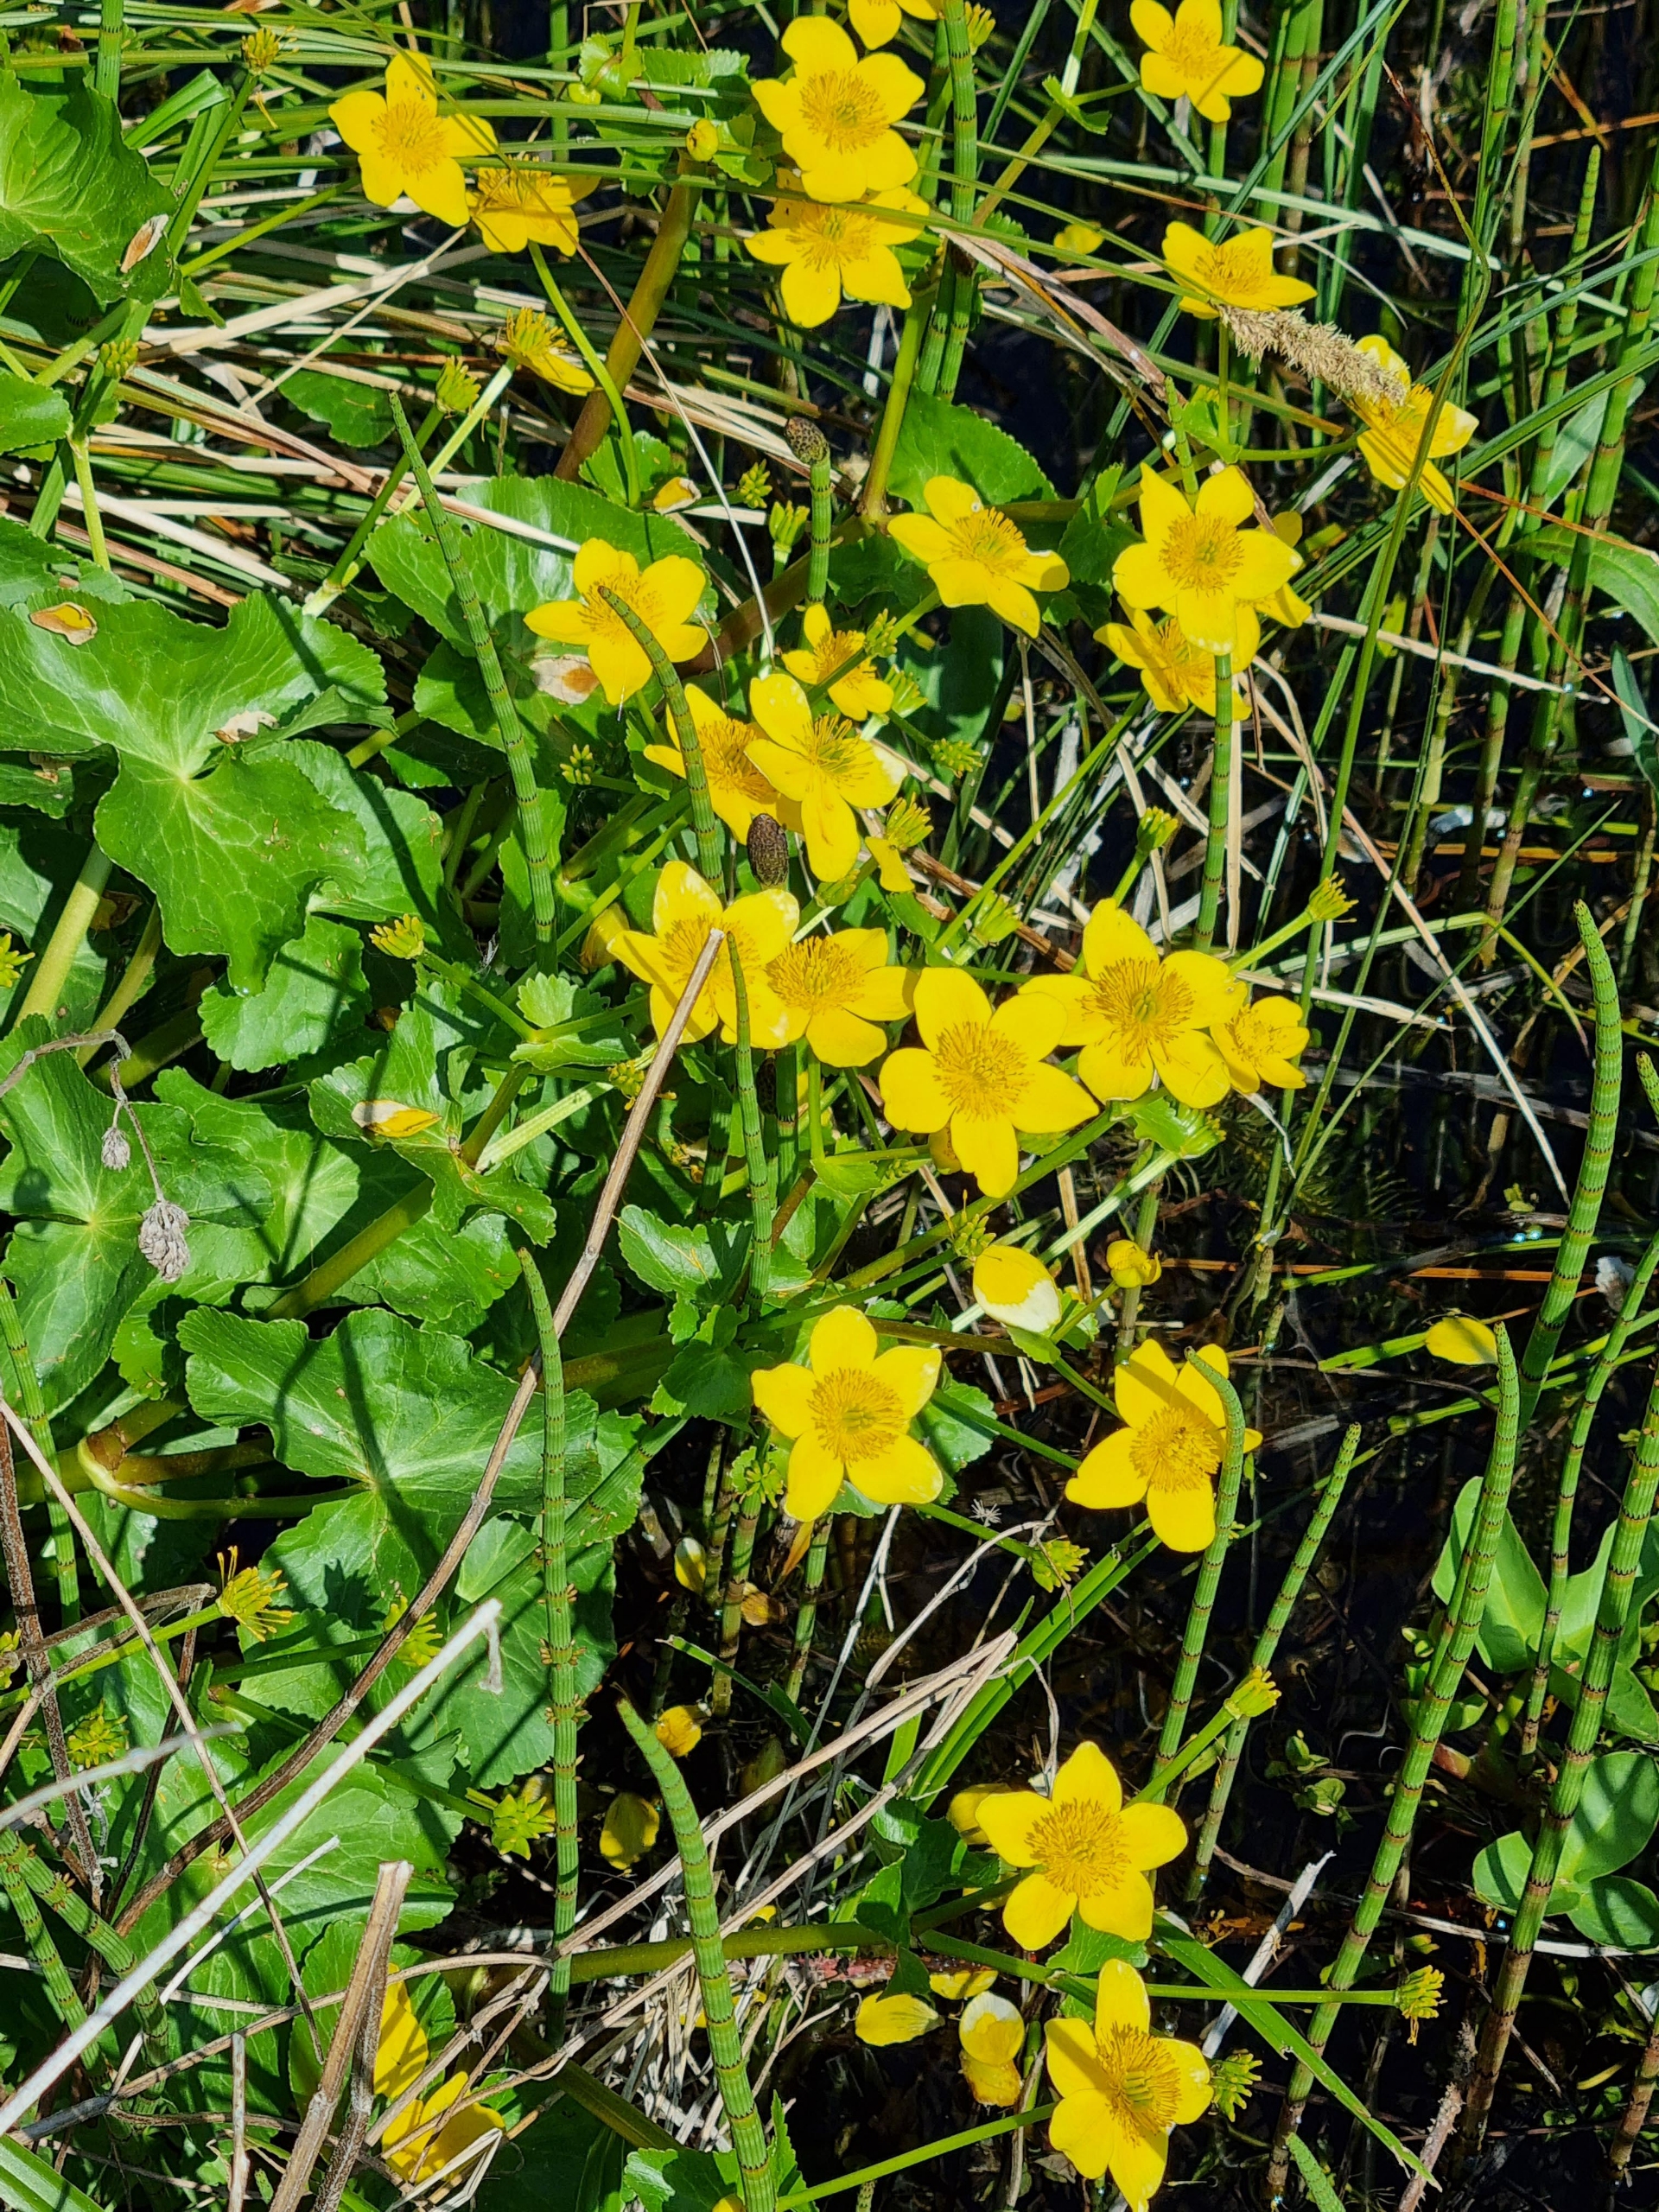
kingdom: Plantae
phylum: Tracheophyta
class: Magnoliopsida
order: Ranunculales
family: Ranunculaceae
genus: Caltha
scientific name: Caltha palustris
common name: Eng-kabbeleje
